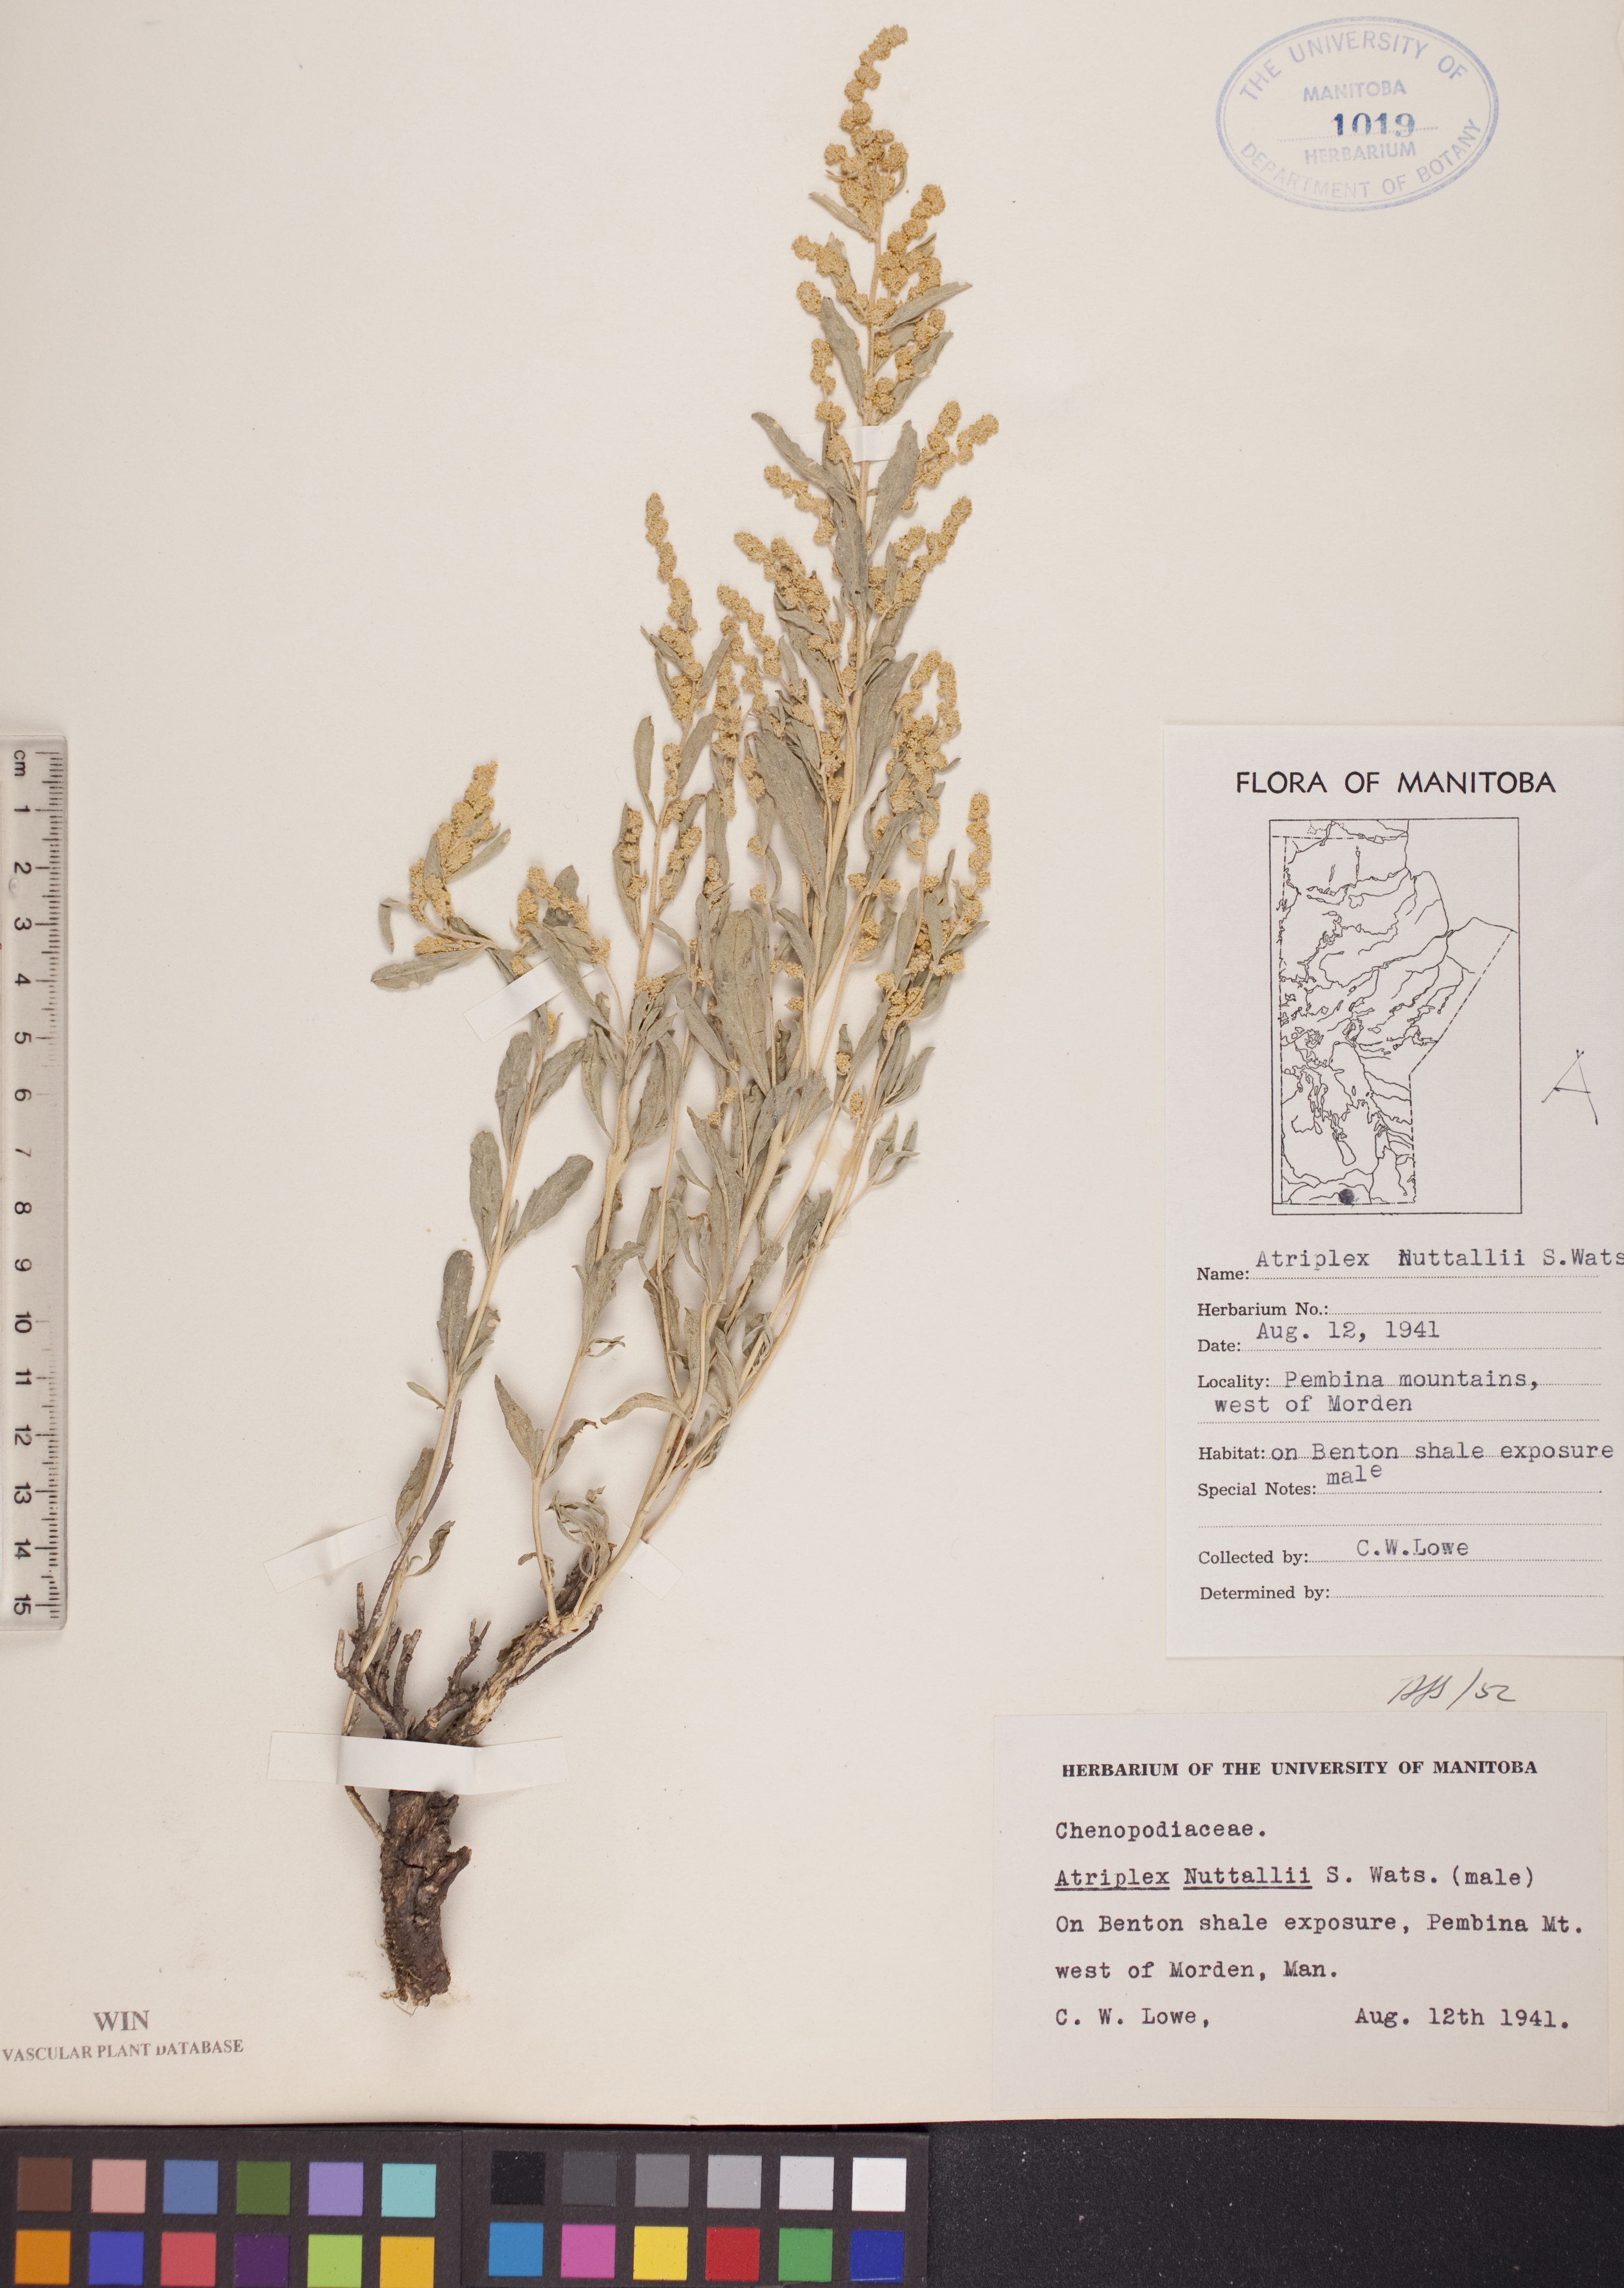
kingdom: Plantae
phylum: Tracheophyta
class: Magnoliopsida
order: Caryophyllales
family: Amaranthaceae
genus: Atriplex
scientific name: Atriplex canescens
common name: Four-wing saltbush
